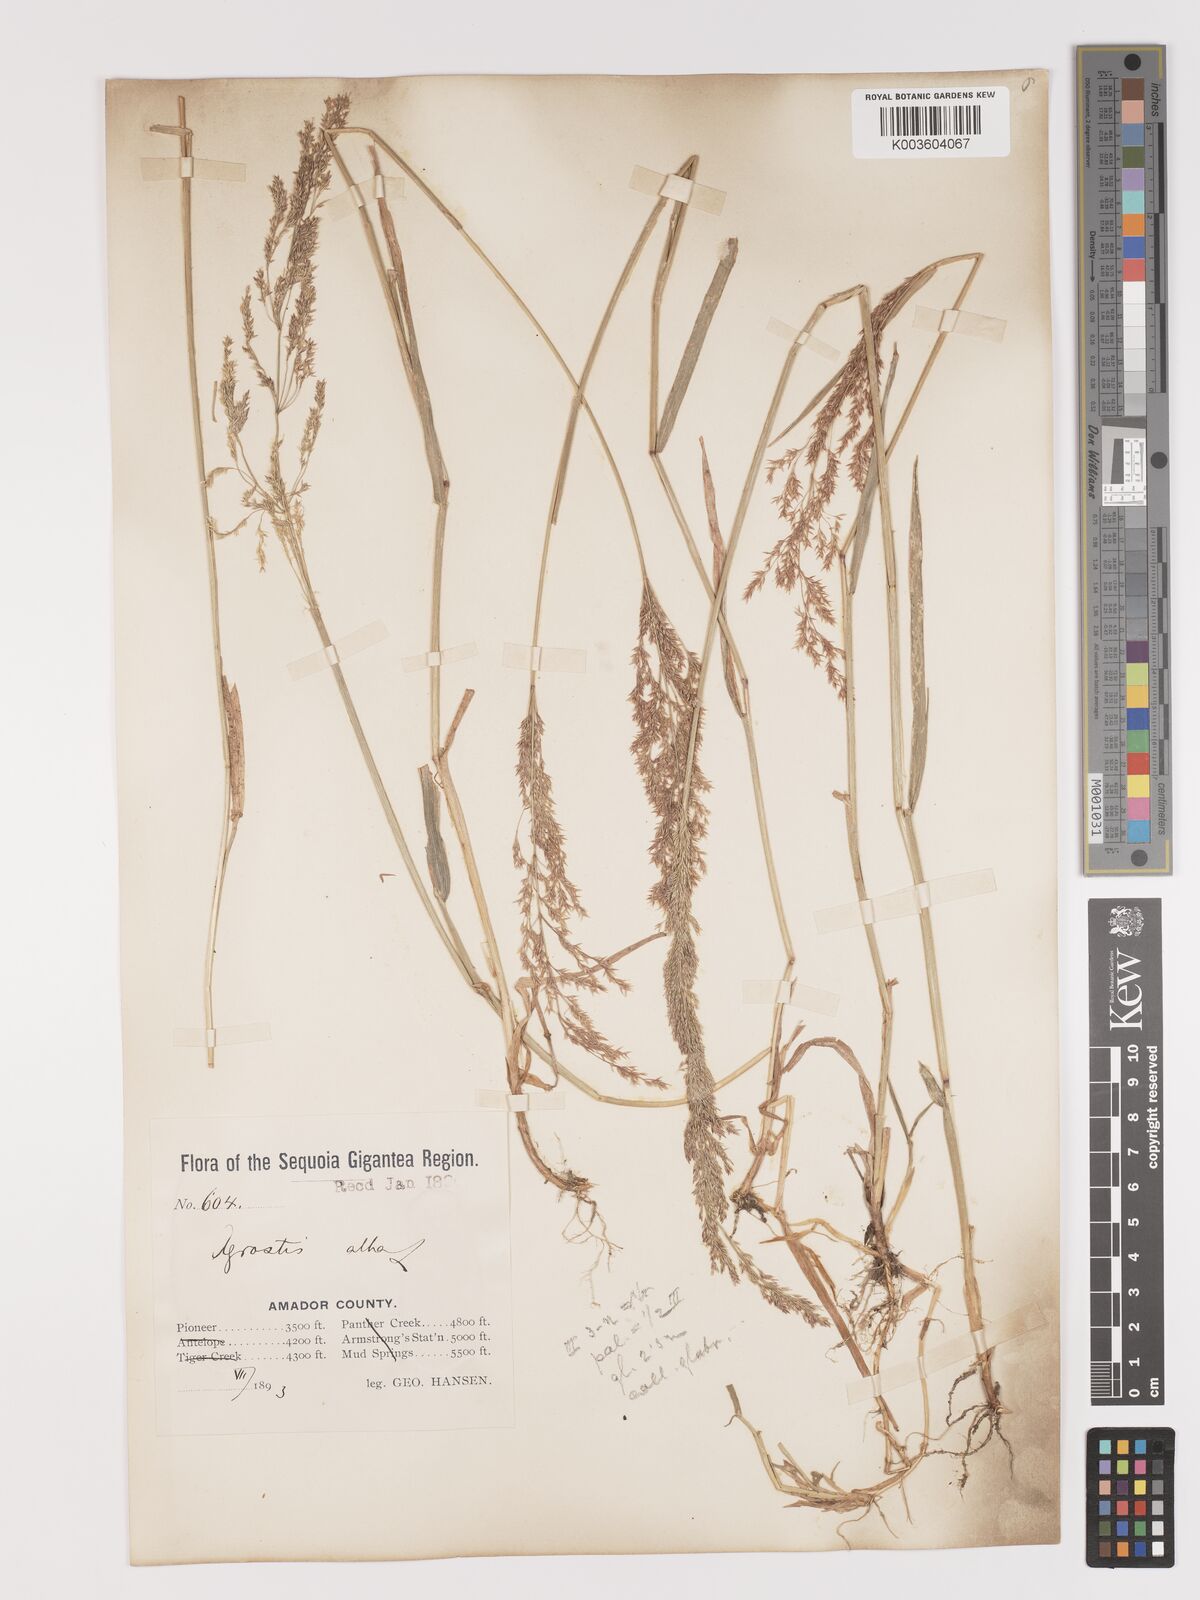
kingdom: Plantae
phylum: Tracheophyta
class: Liliopsida
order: Poales
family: Poaceae
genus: Agrostis
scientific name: Agrostis gigantea
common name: Black bent
